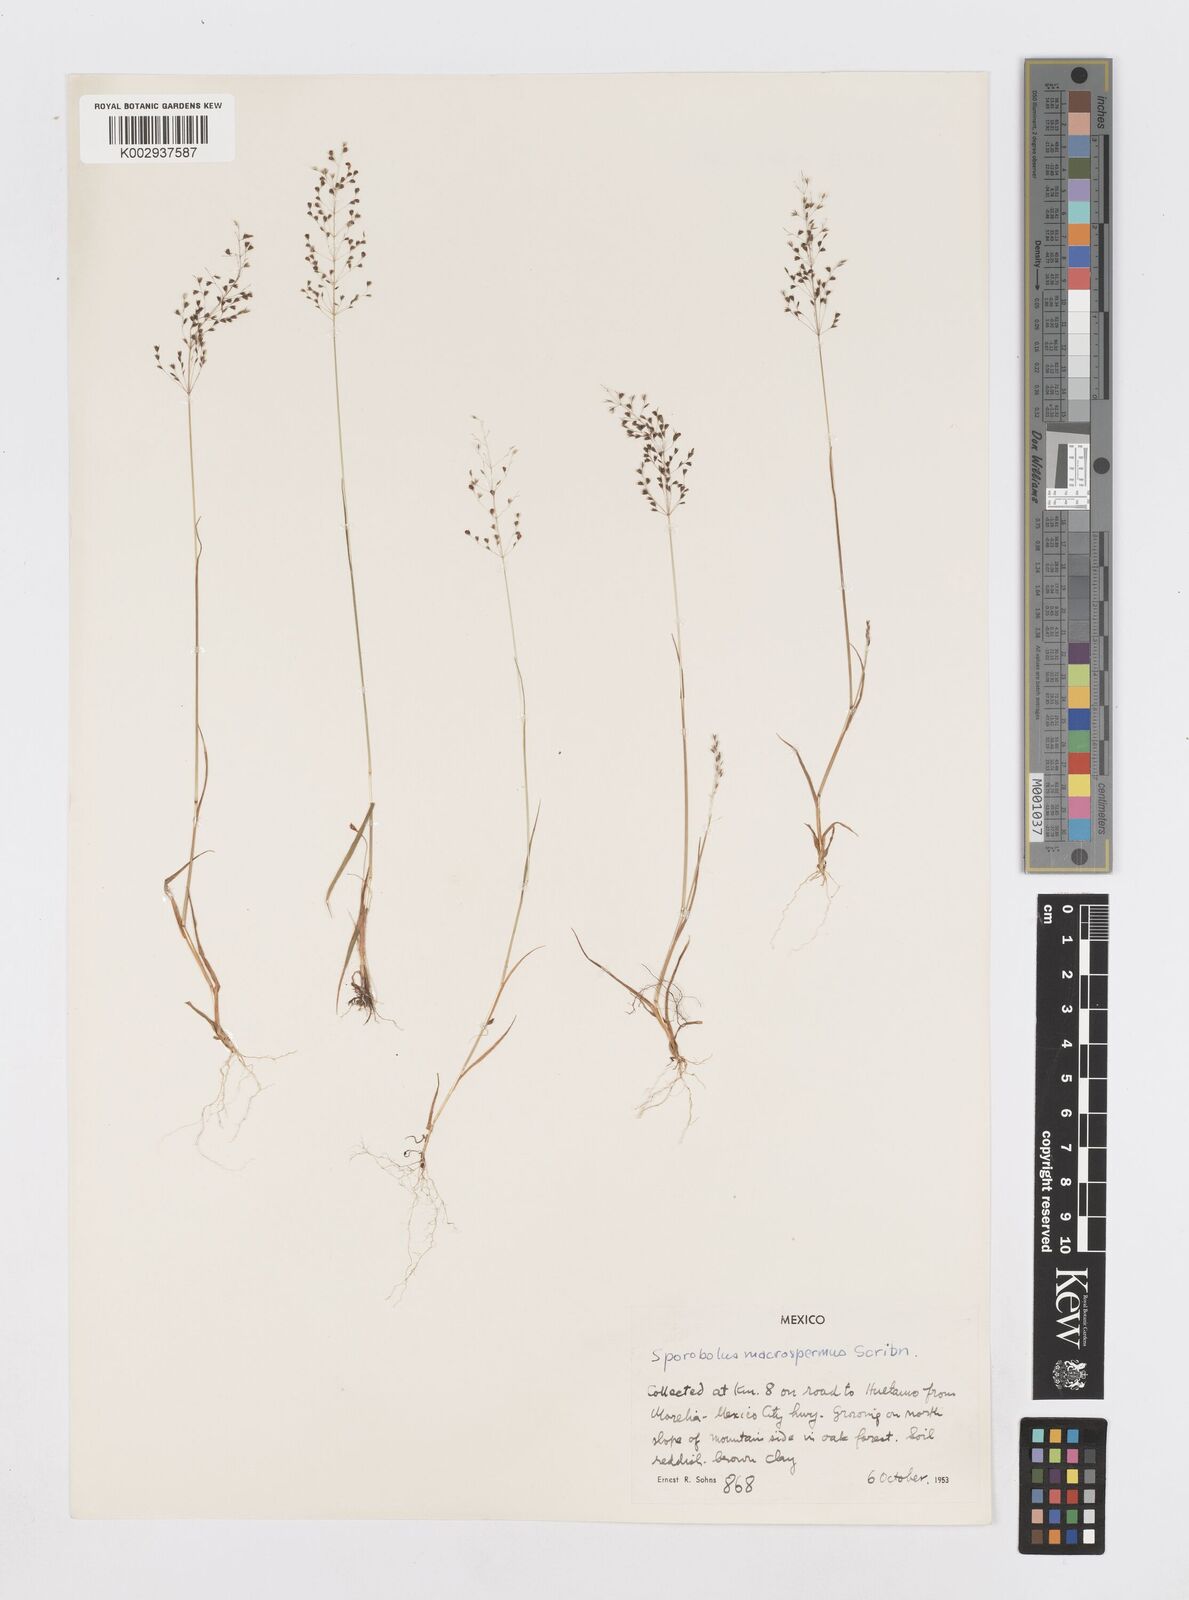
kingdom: Plantae
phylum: Tracheophyta
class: Liliopsida
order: Poales
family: Poaceae
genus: Sporobolus
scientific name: Sporobolus macrospermus
